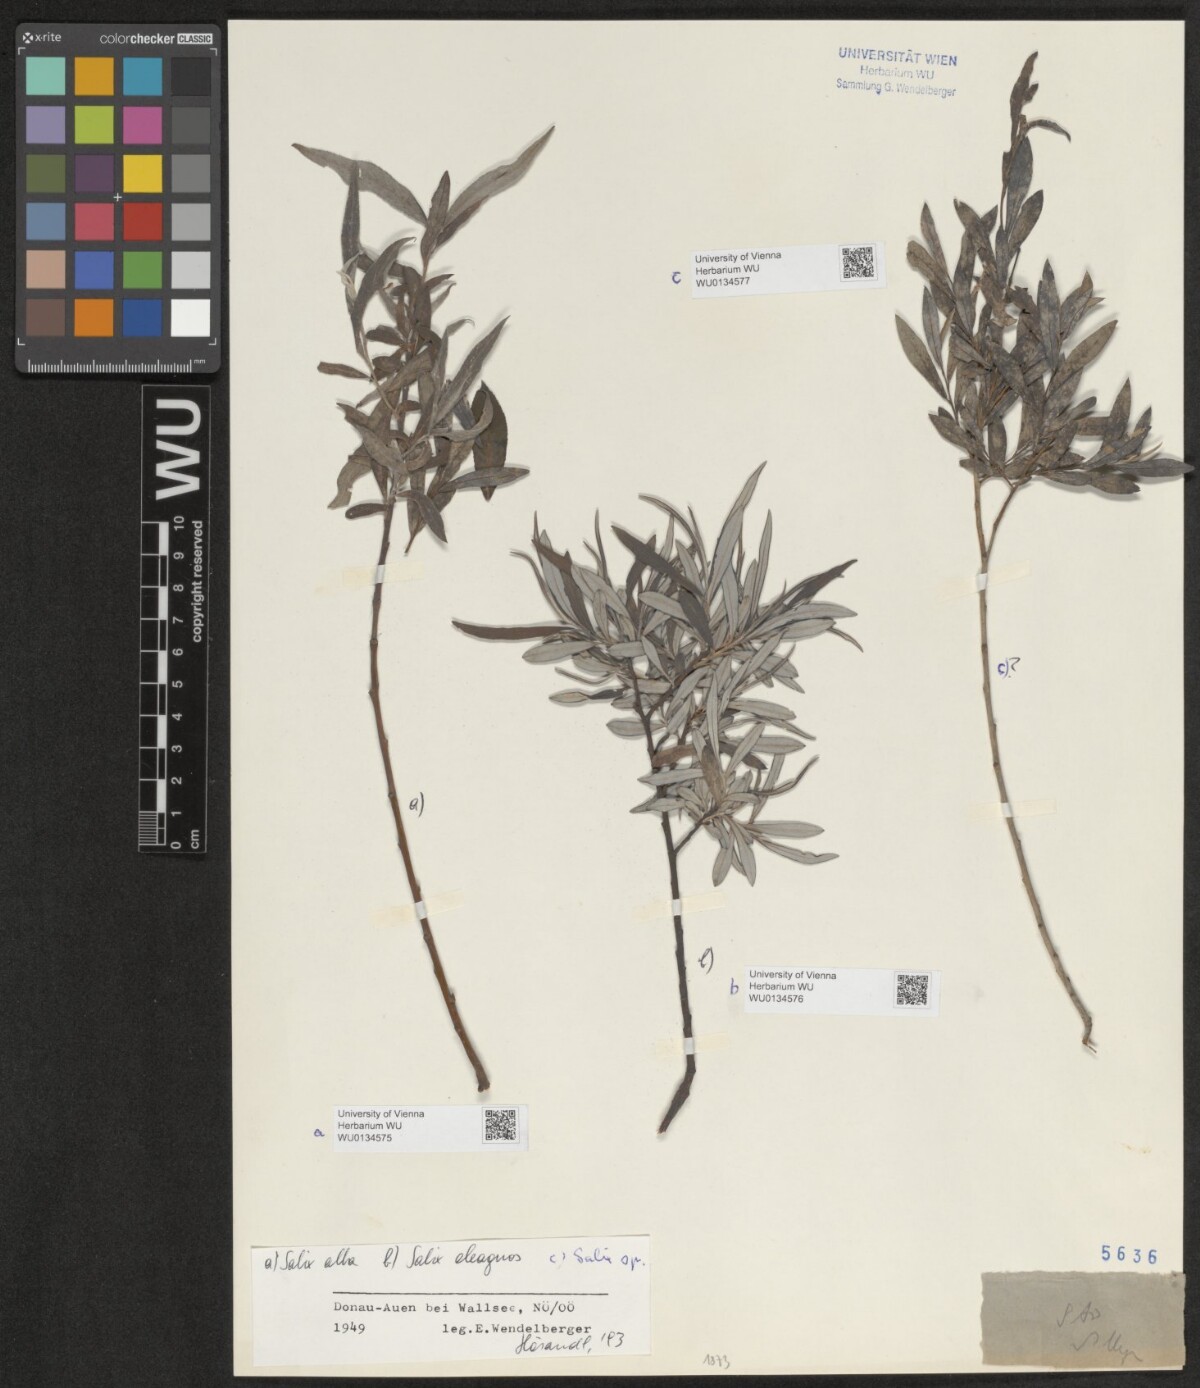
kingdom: Plantae
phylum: Tracheophyta
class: Magnoliopsida
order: Malpighiales
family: Salicaceae
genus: Salix
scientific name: Salix alba
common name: White willow
